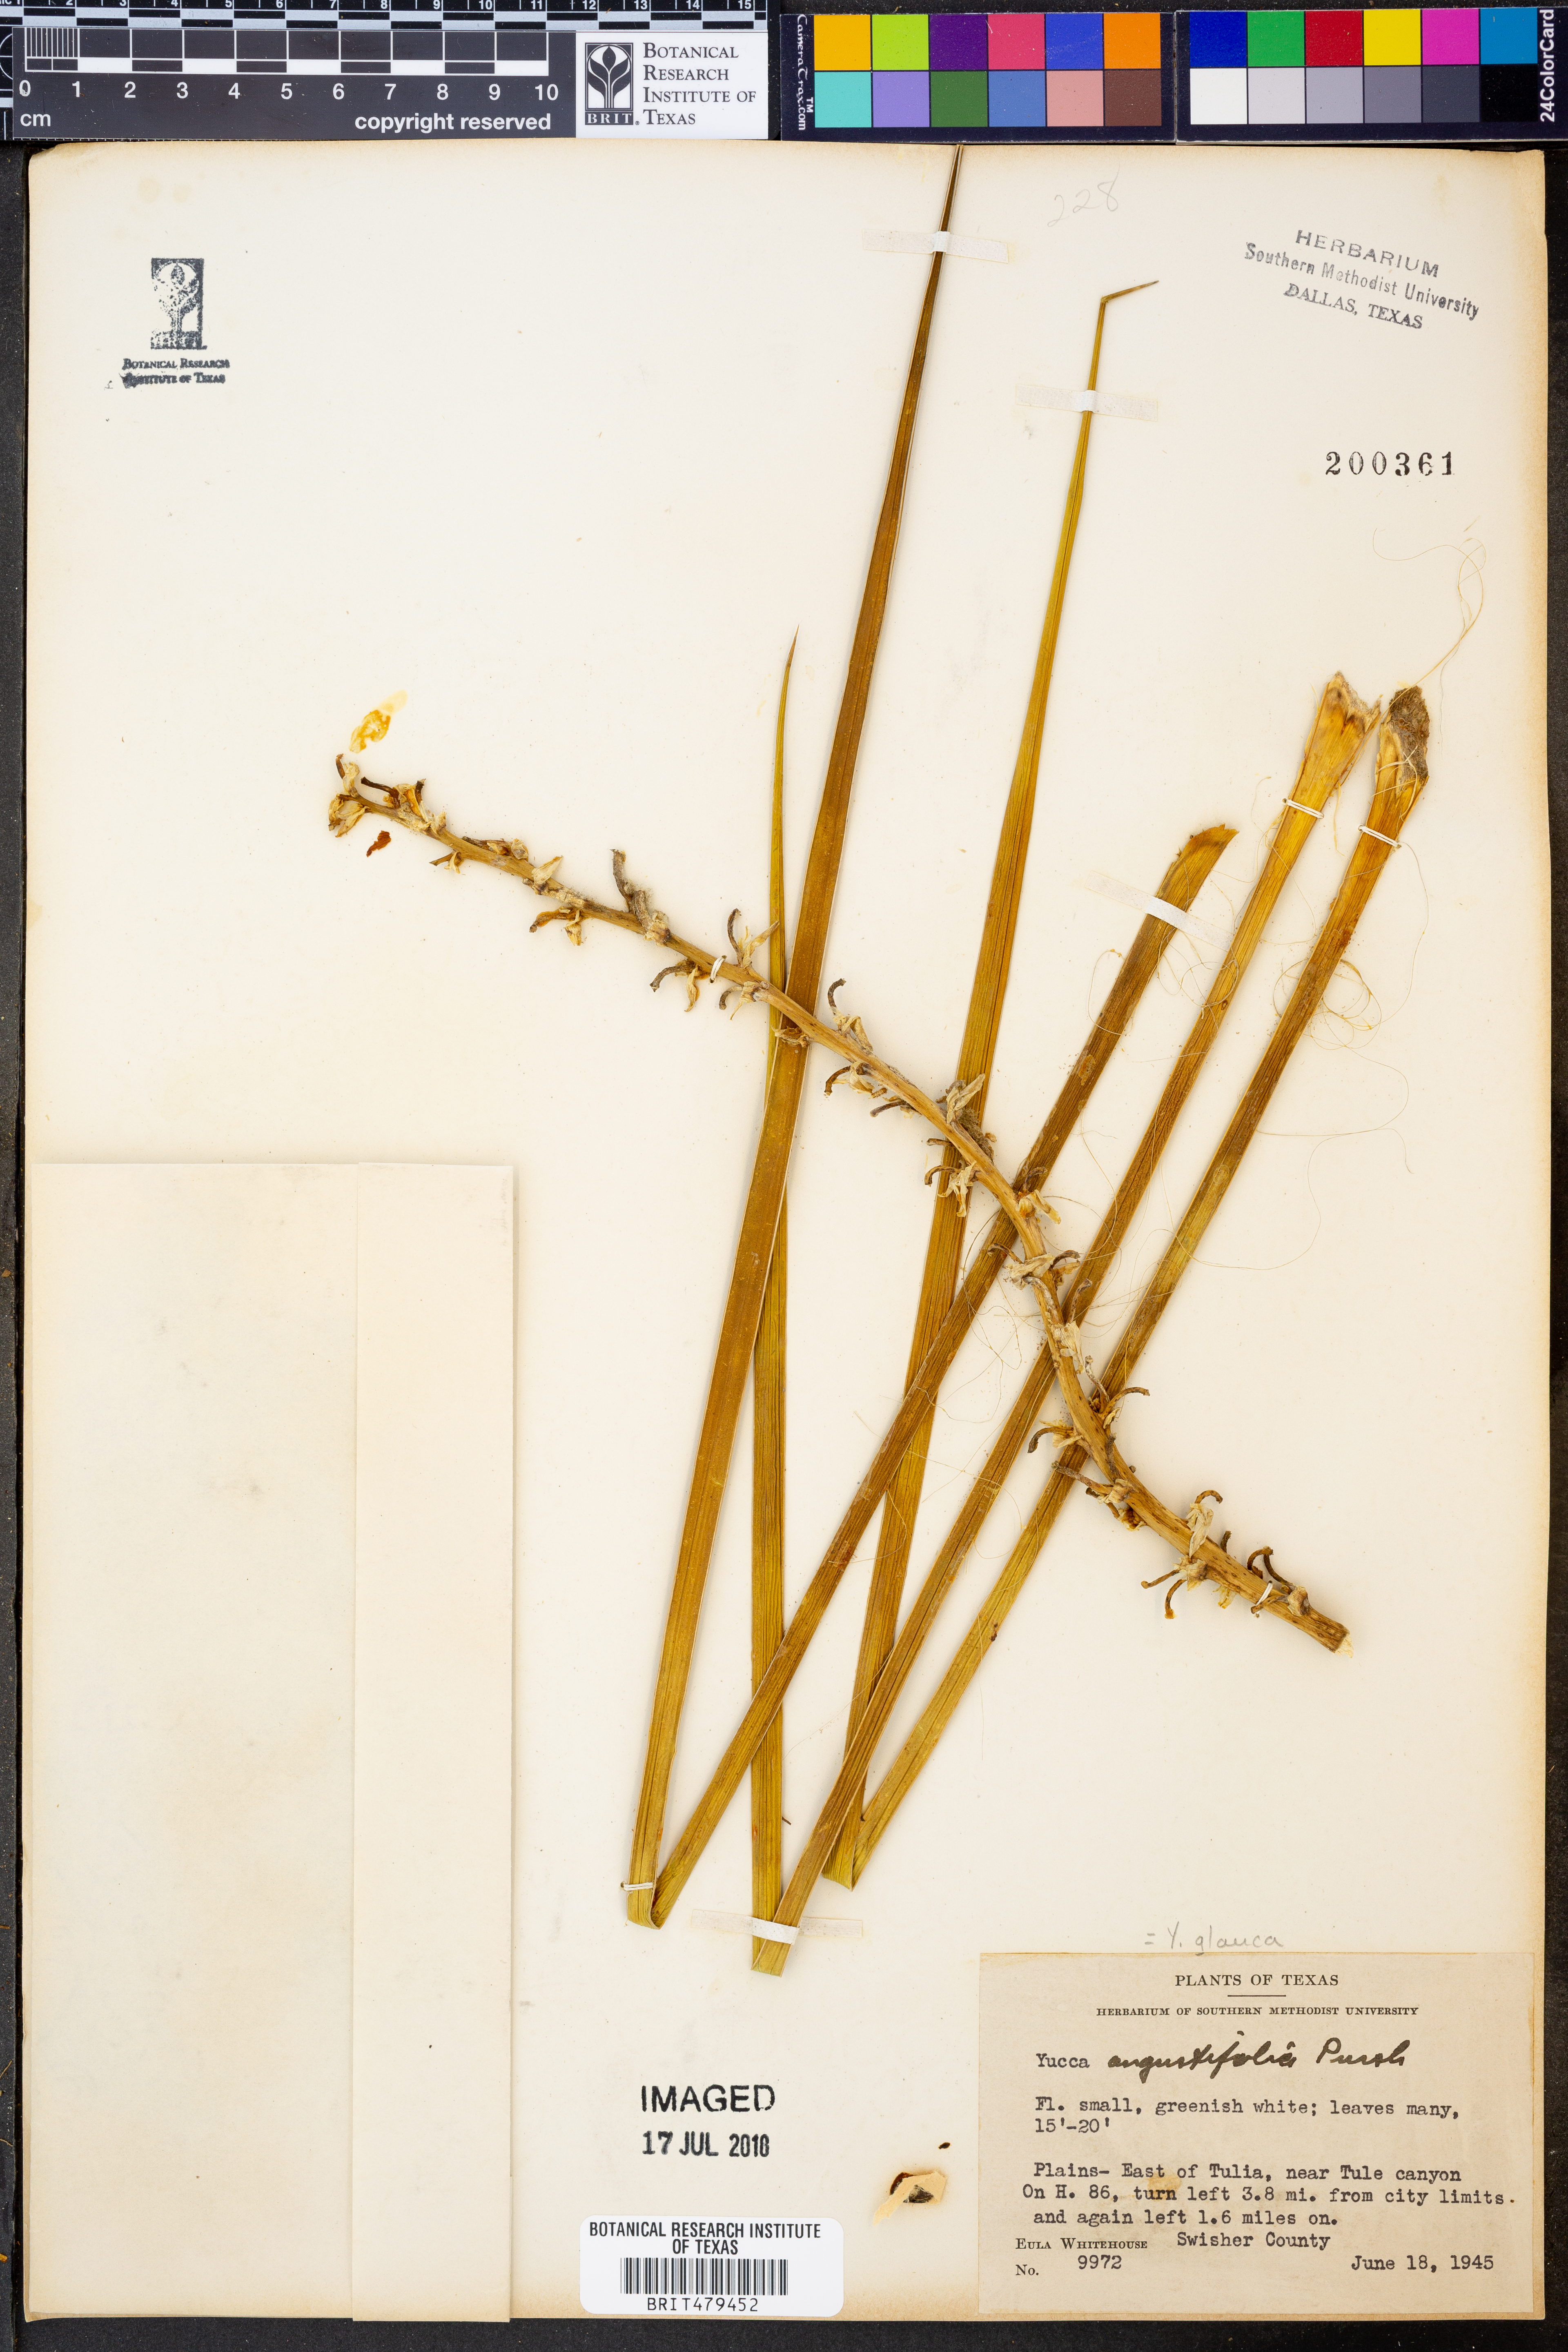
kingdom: Plantae
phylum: Tracheophyta
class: Liliopsida
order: Asparagales
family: Asparagaceae
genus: Yucca
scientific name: Yucca glauca
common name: Great plains yucca
